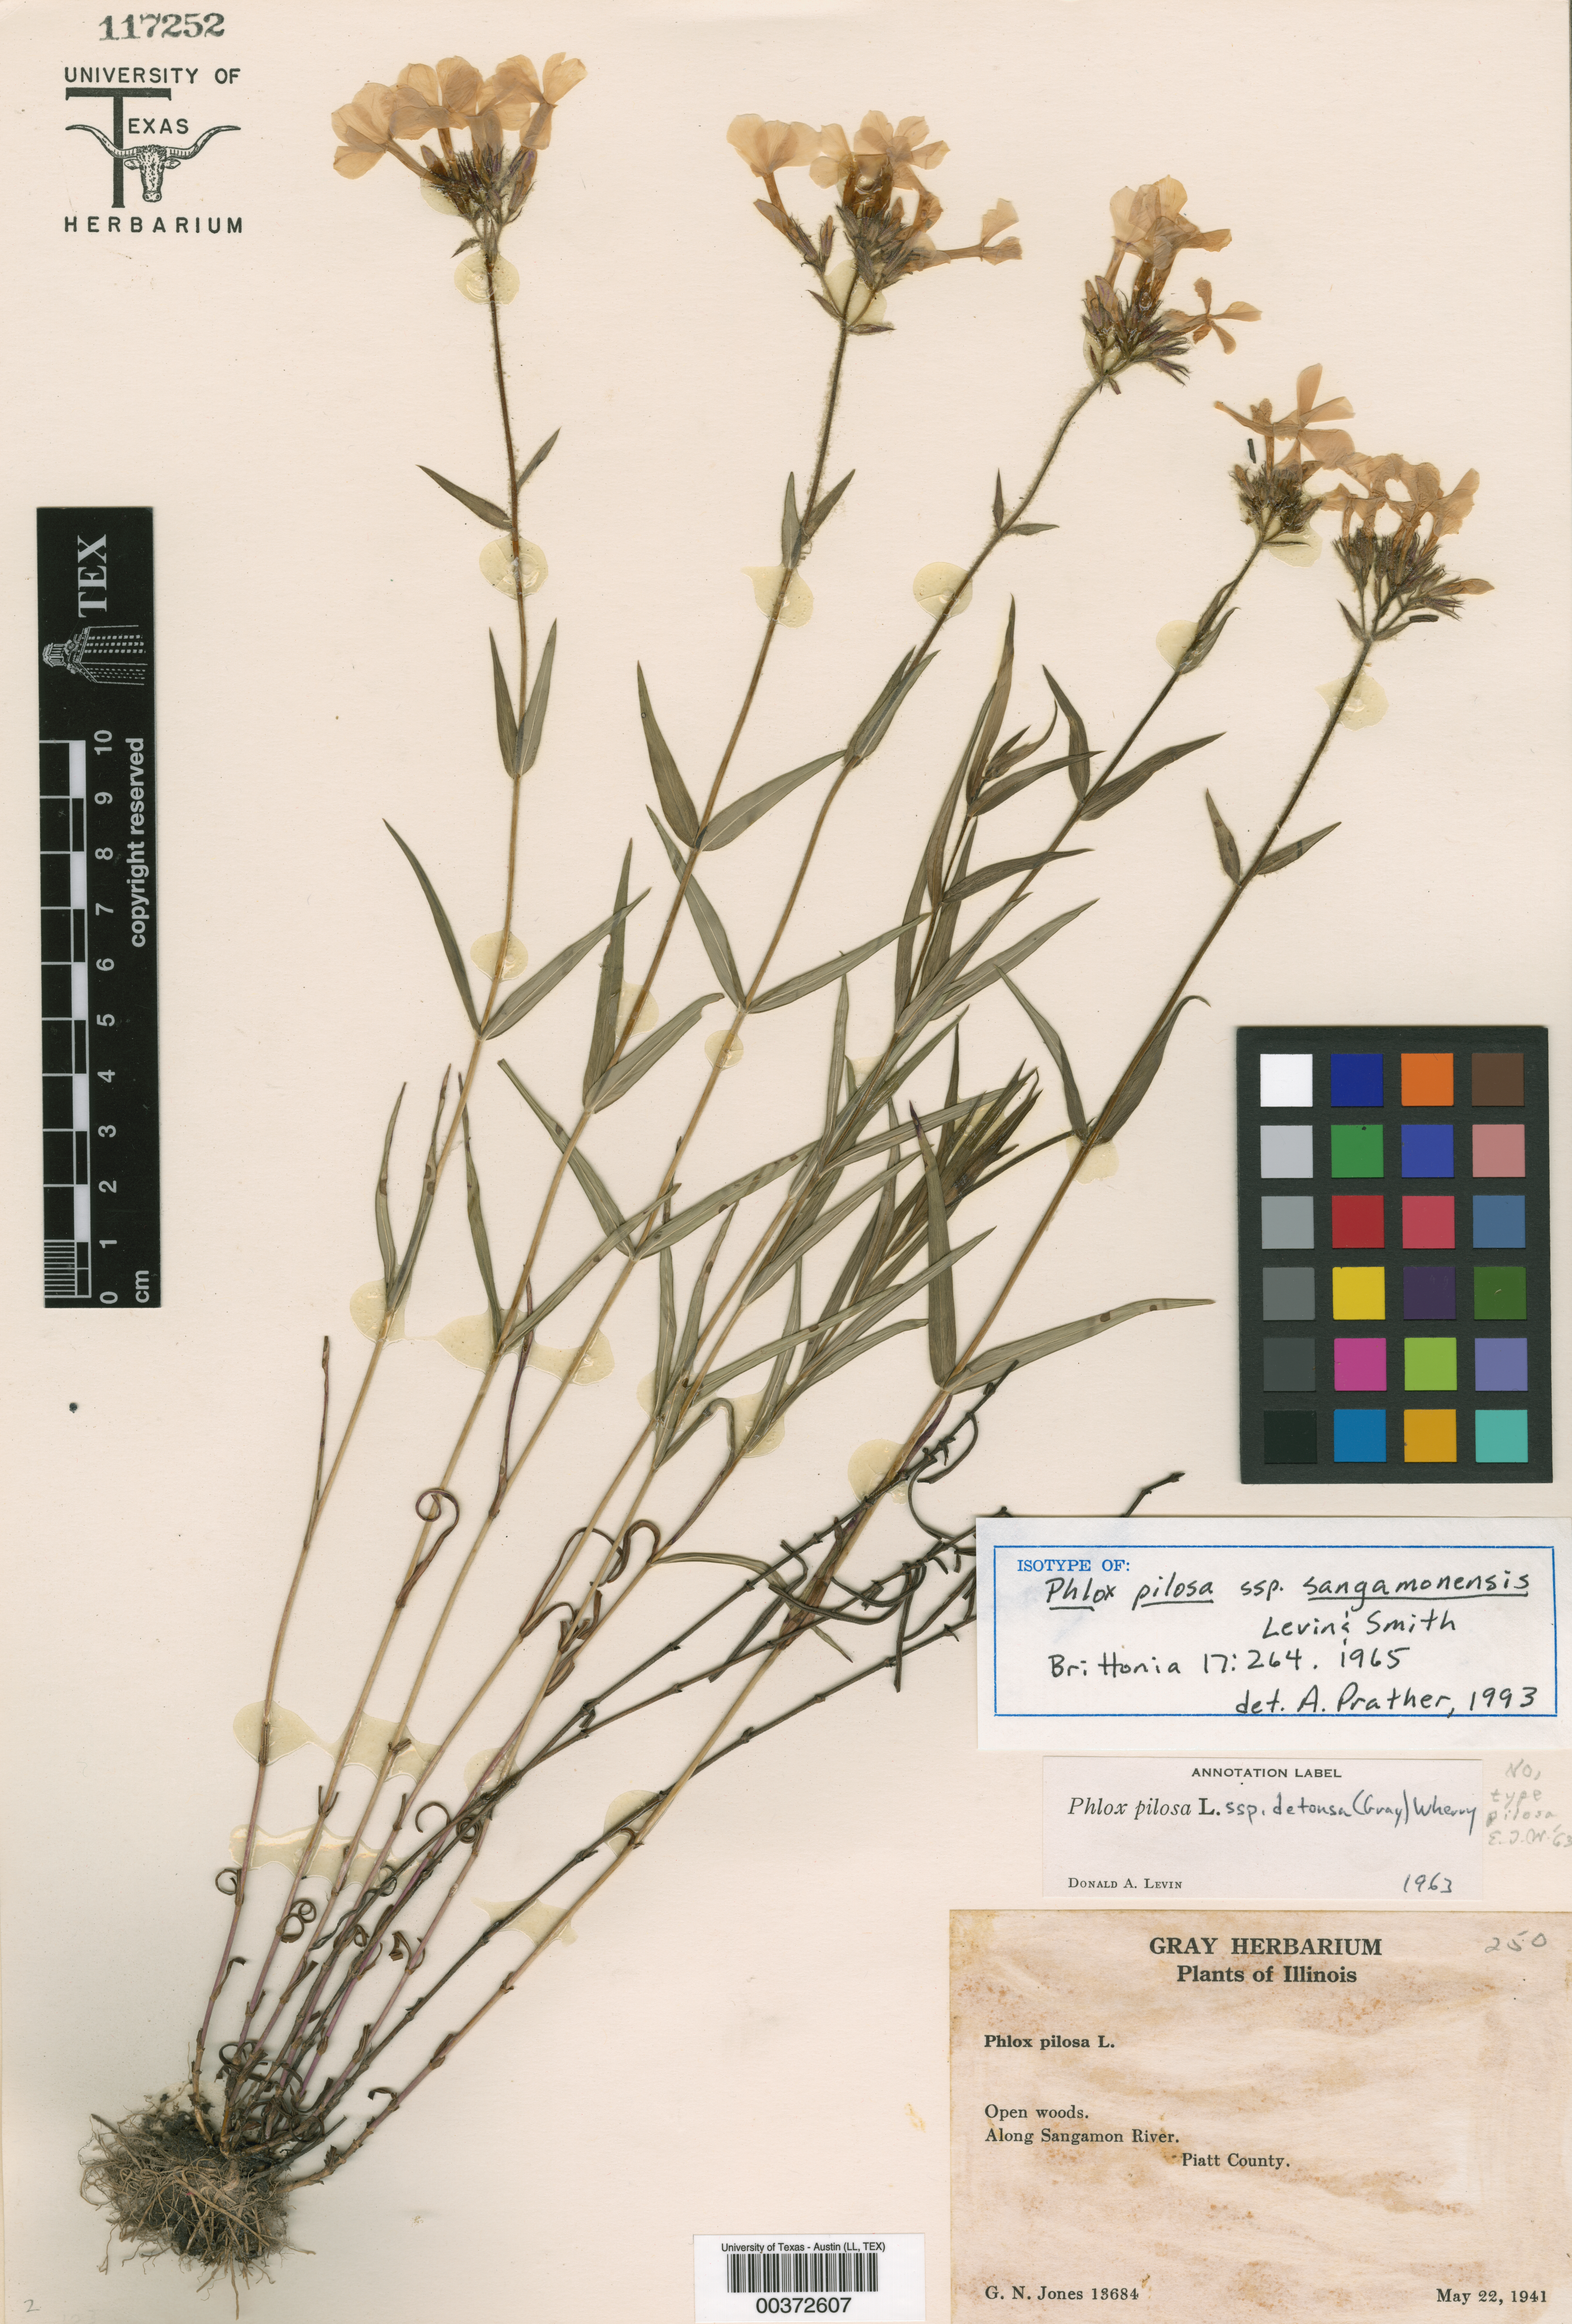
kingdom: Plantae
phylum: Tracheophyta
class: Magnoliopsida
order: Malpighiales
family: Hypericaceae
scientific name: Hypericaceae
